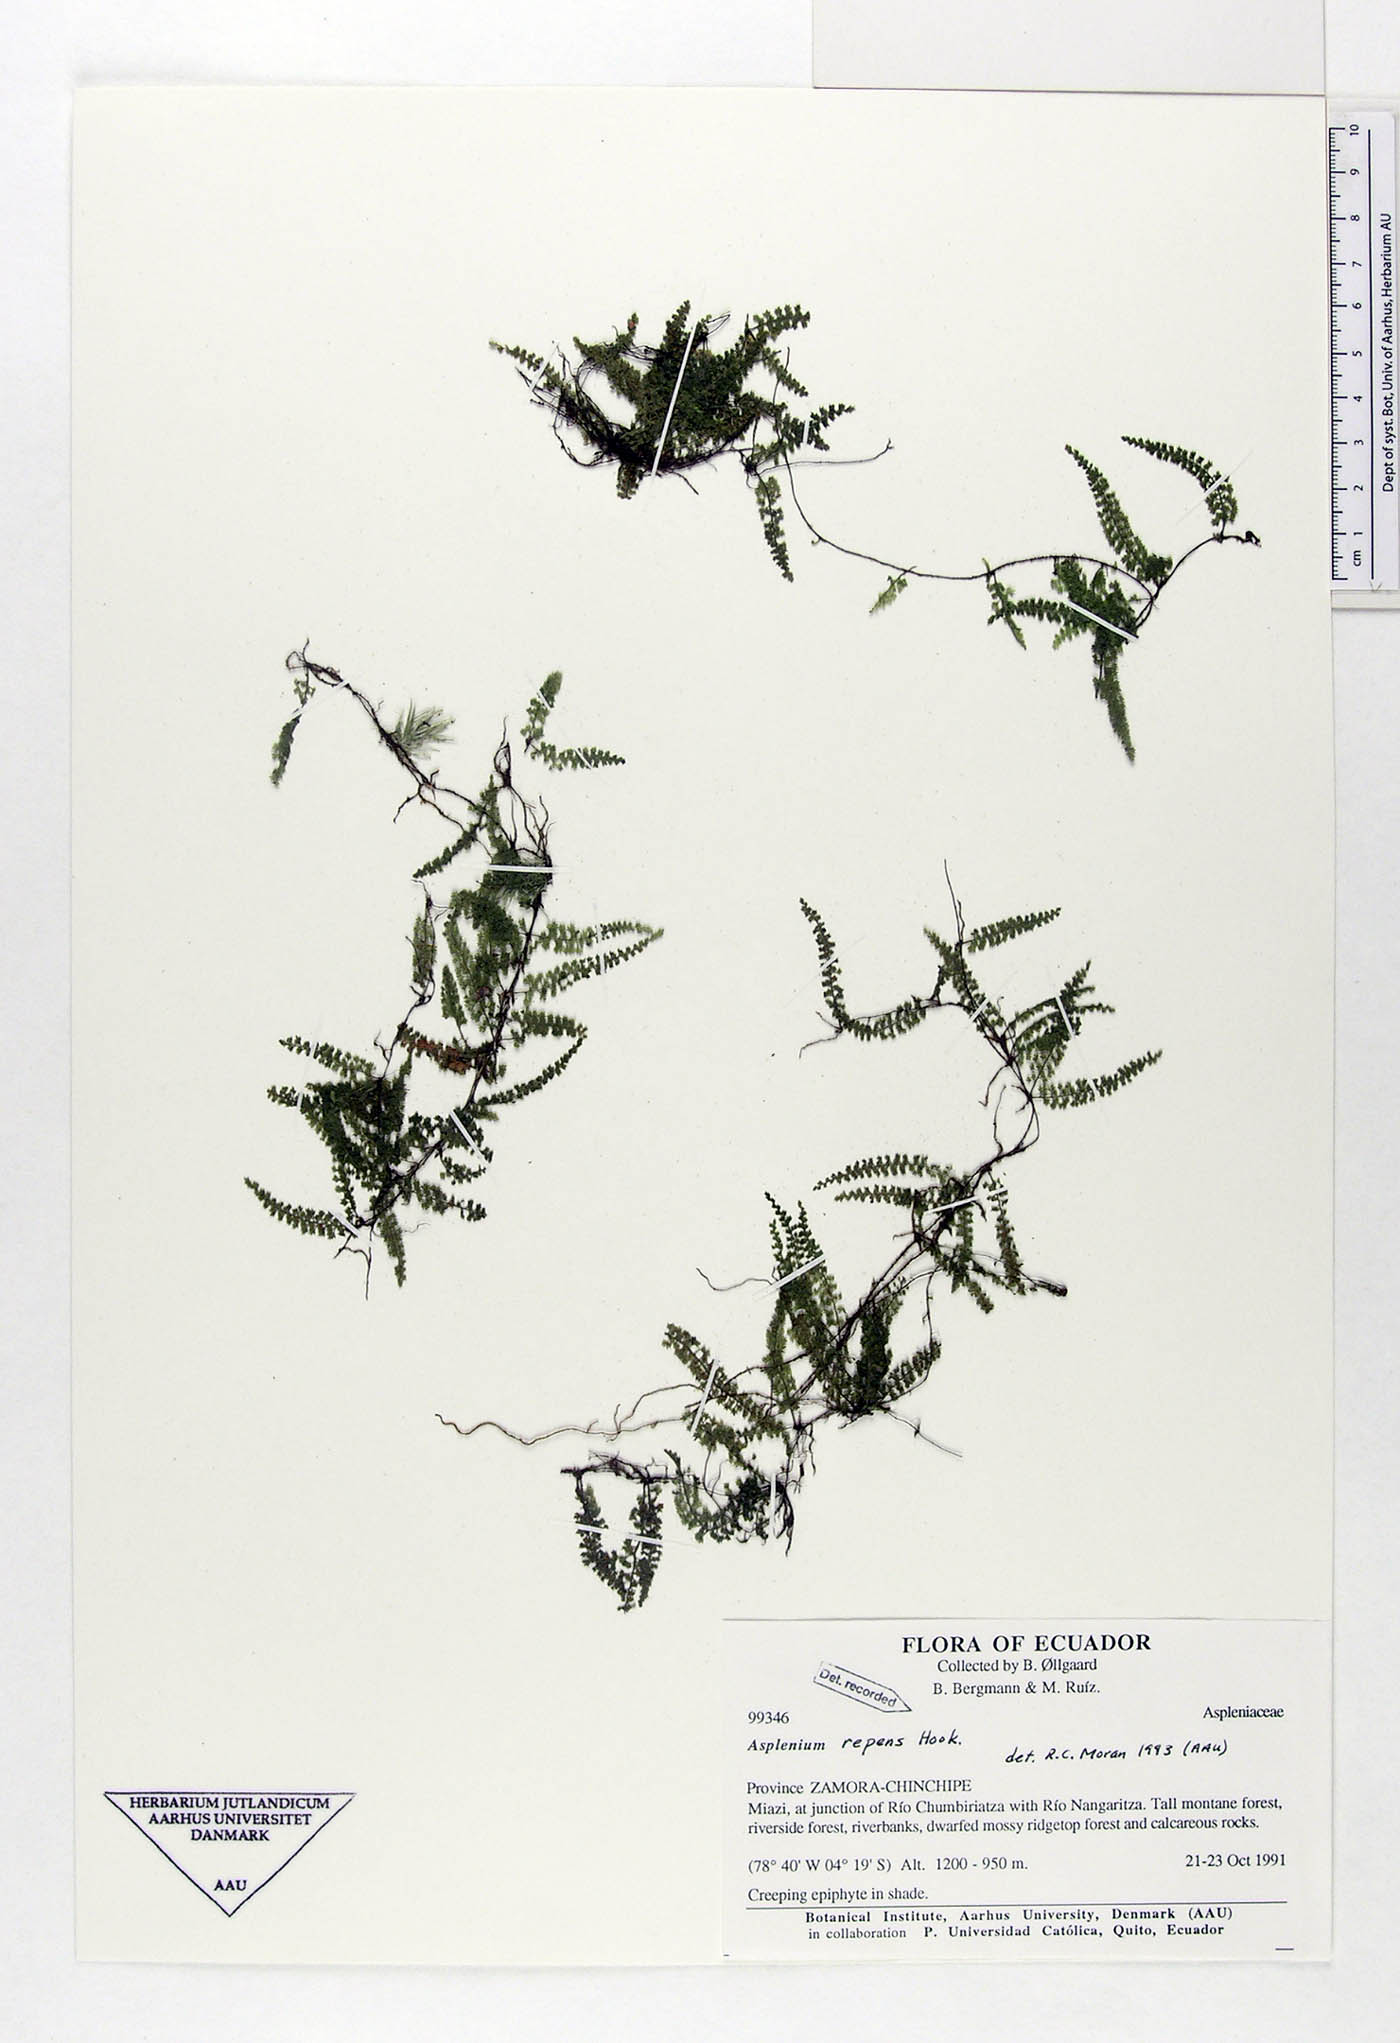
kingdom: Plantae
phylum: Tracheophyta
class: Polypodiopsida
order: Polypodiales
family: Aspleniaceae
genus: Asplenium
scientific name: Asplenium repens
